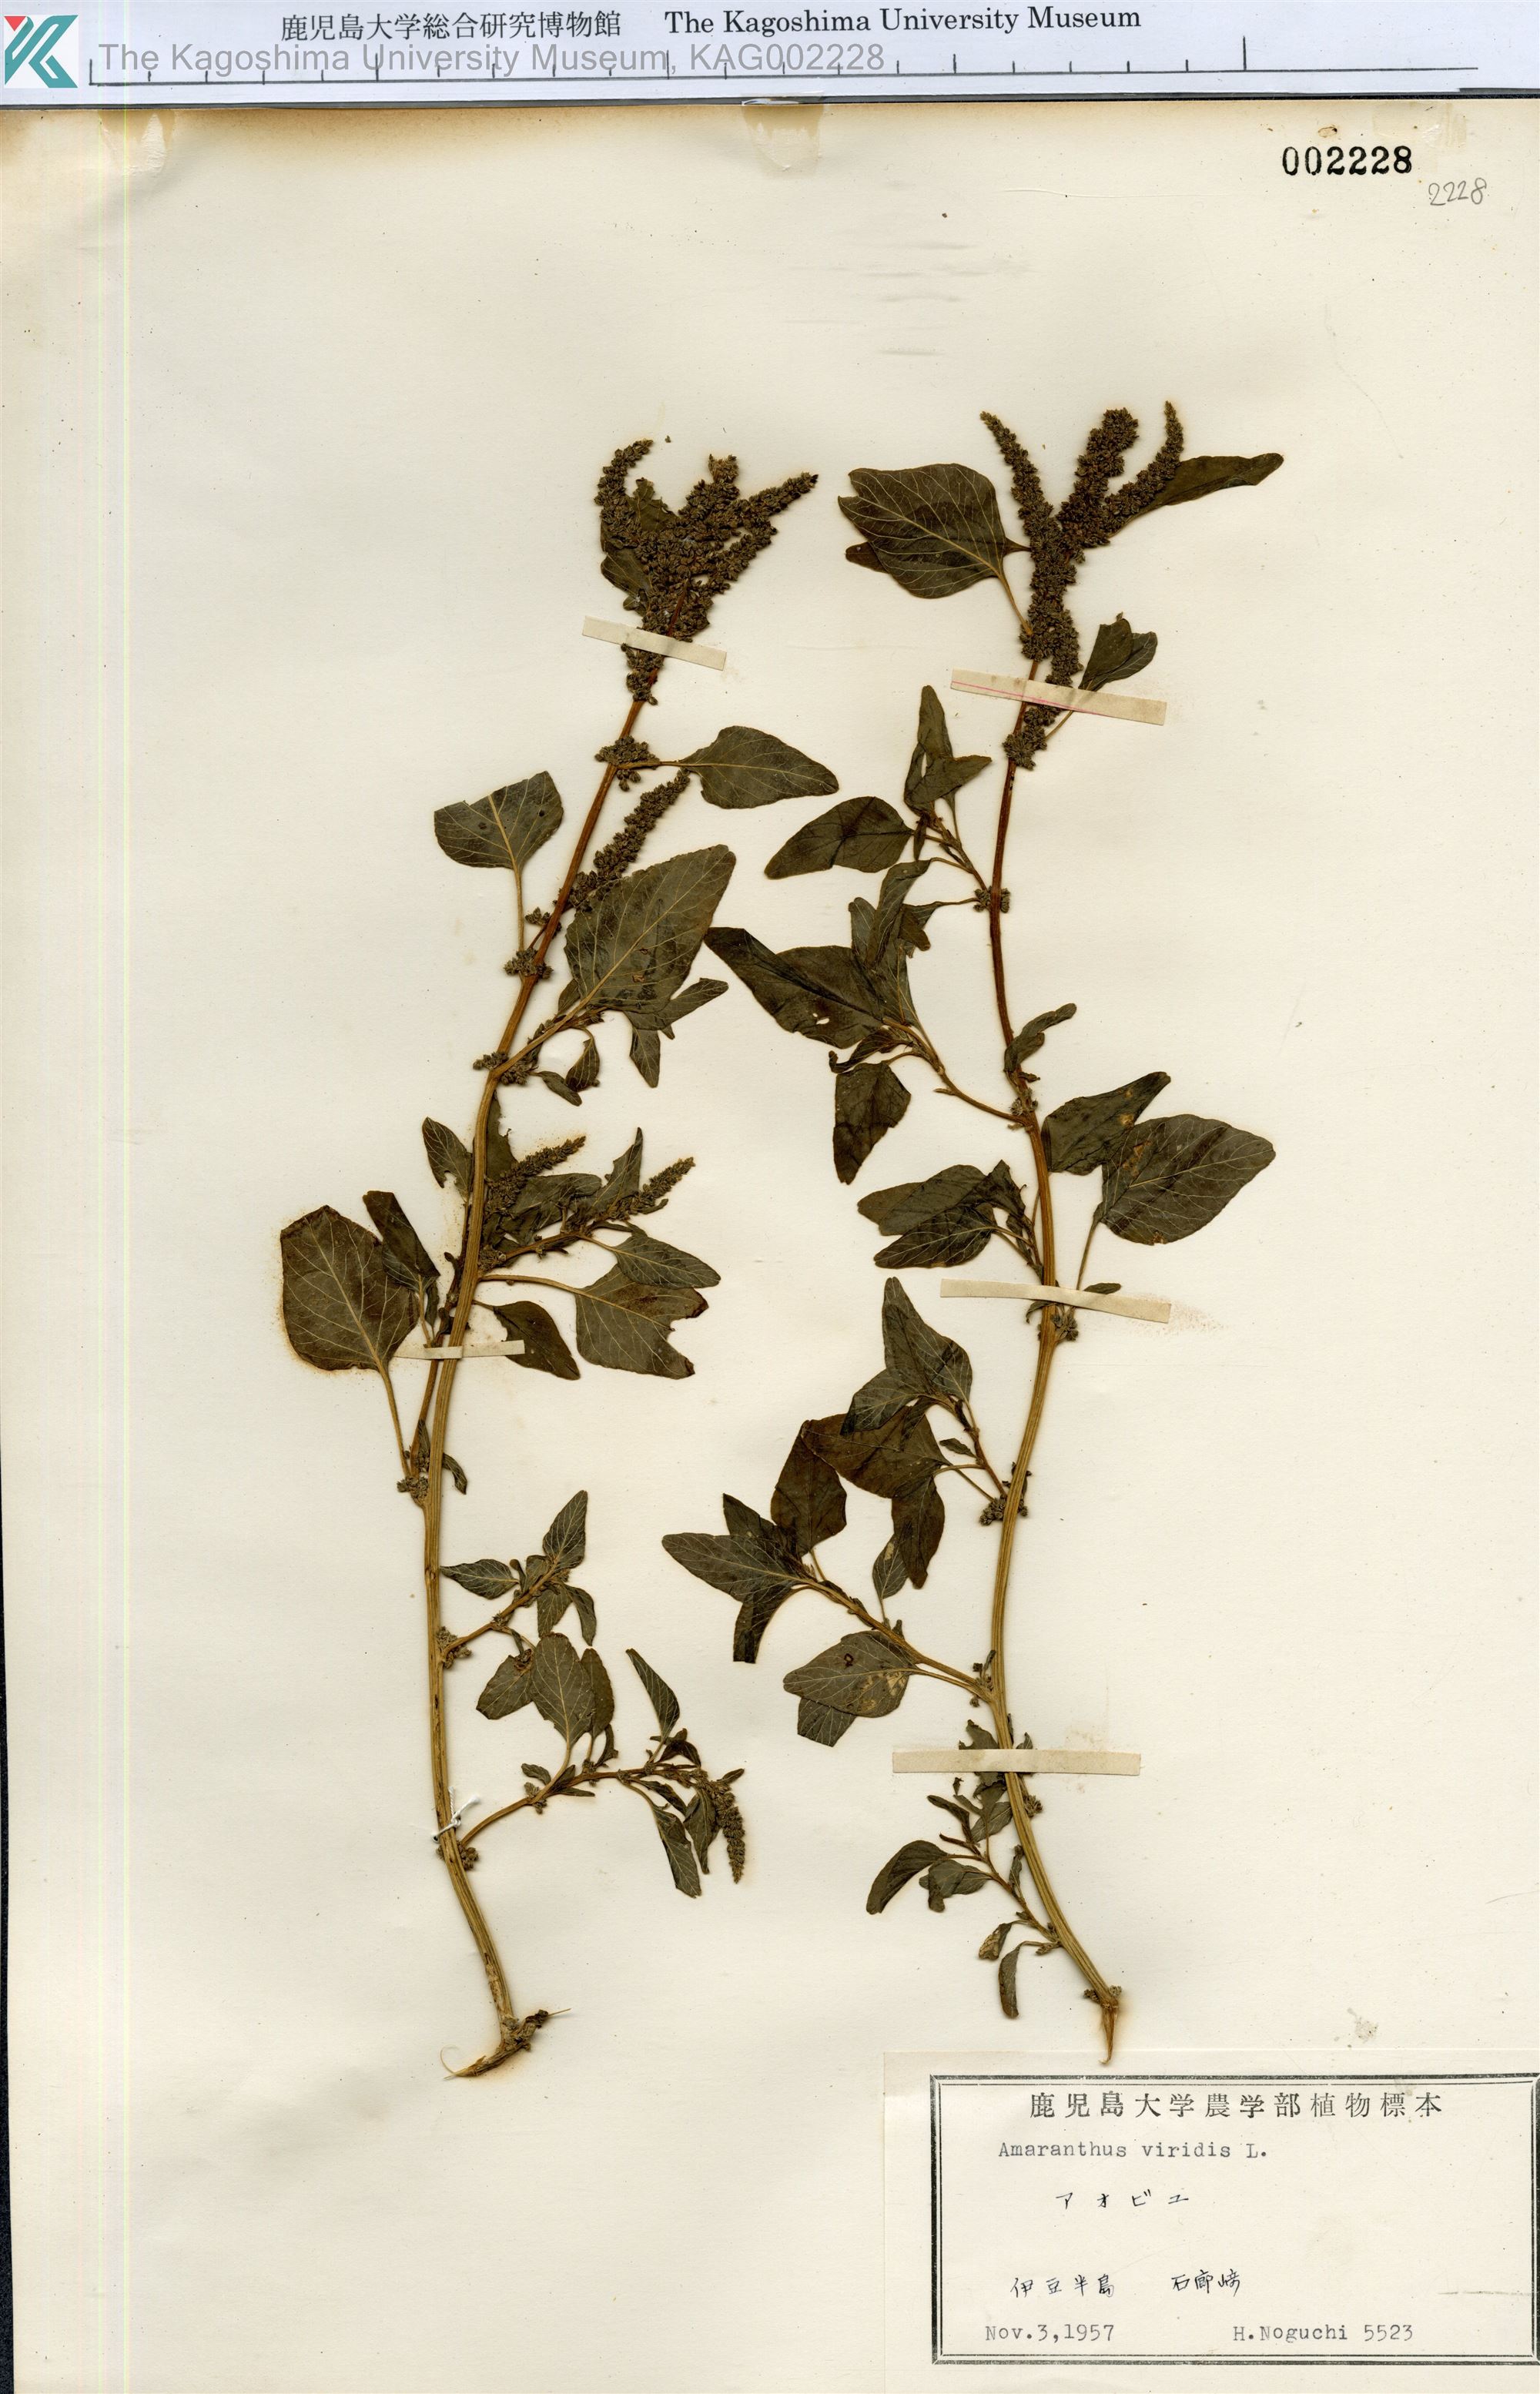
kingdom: Plantae
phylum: Tracheophyta
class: Magnoliopsida
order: Caryophyllales
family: Amaranthaceae
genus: Amaranthus
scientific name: Amaranthus viridis
